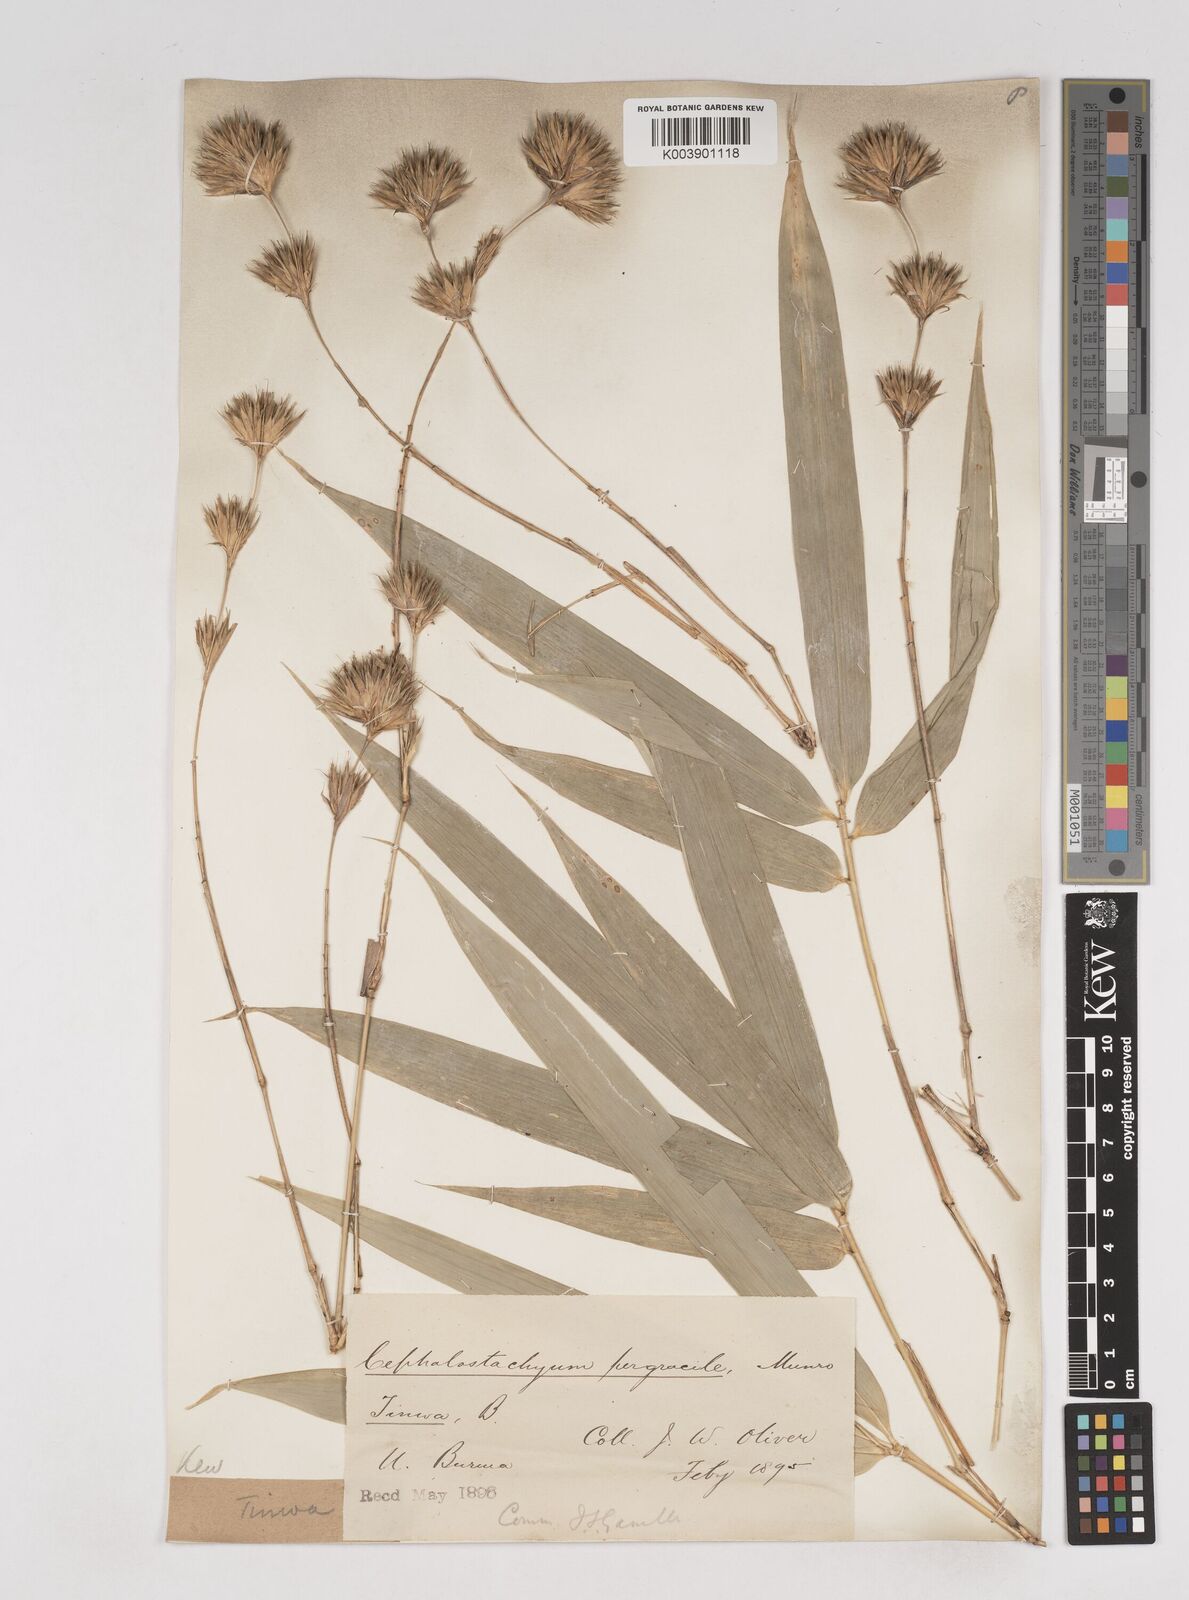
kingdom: Plantae
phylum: Tracheophyta
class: Liliopsida
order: Poales
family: Poaceae
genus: Schizostachyum
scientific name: Schizostachyum pergracile
